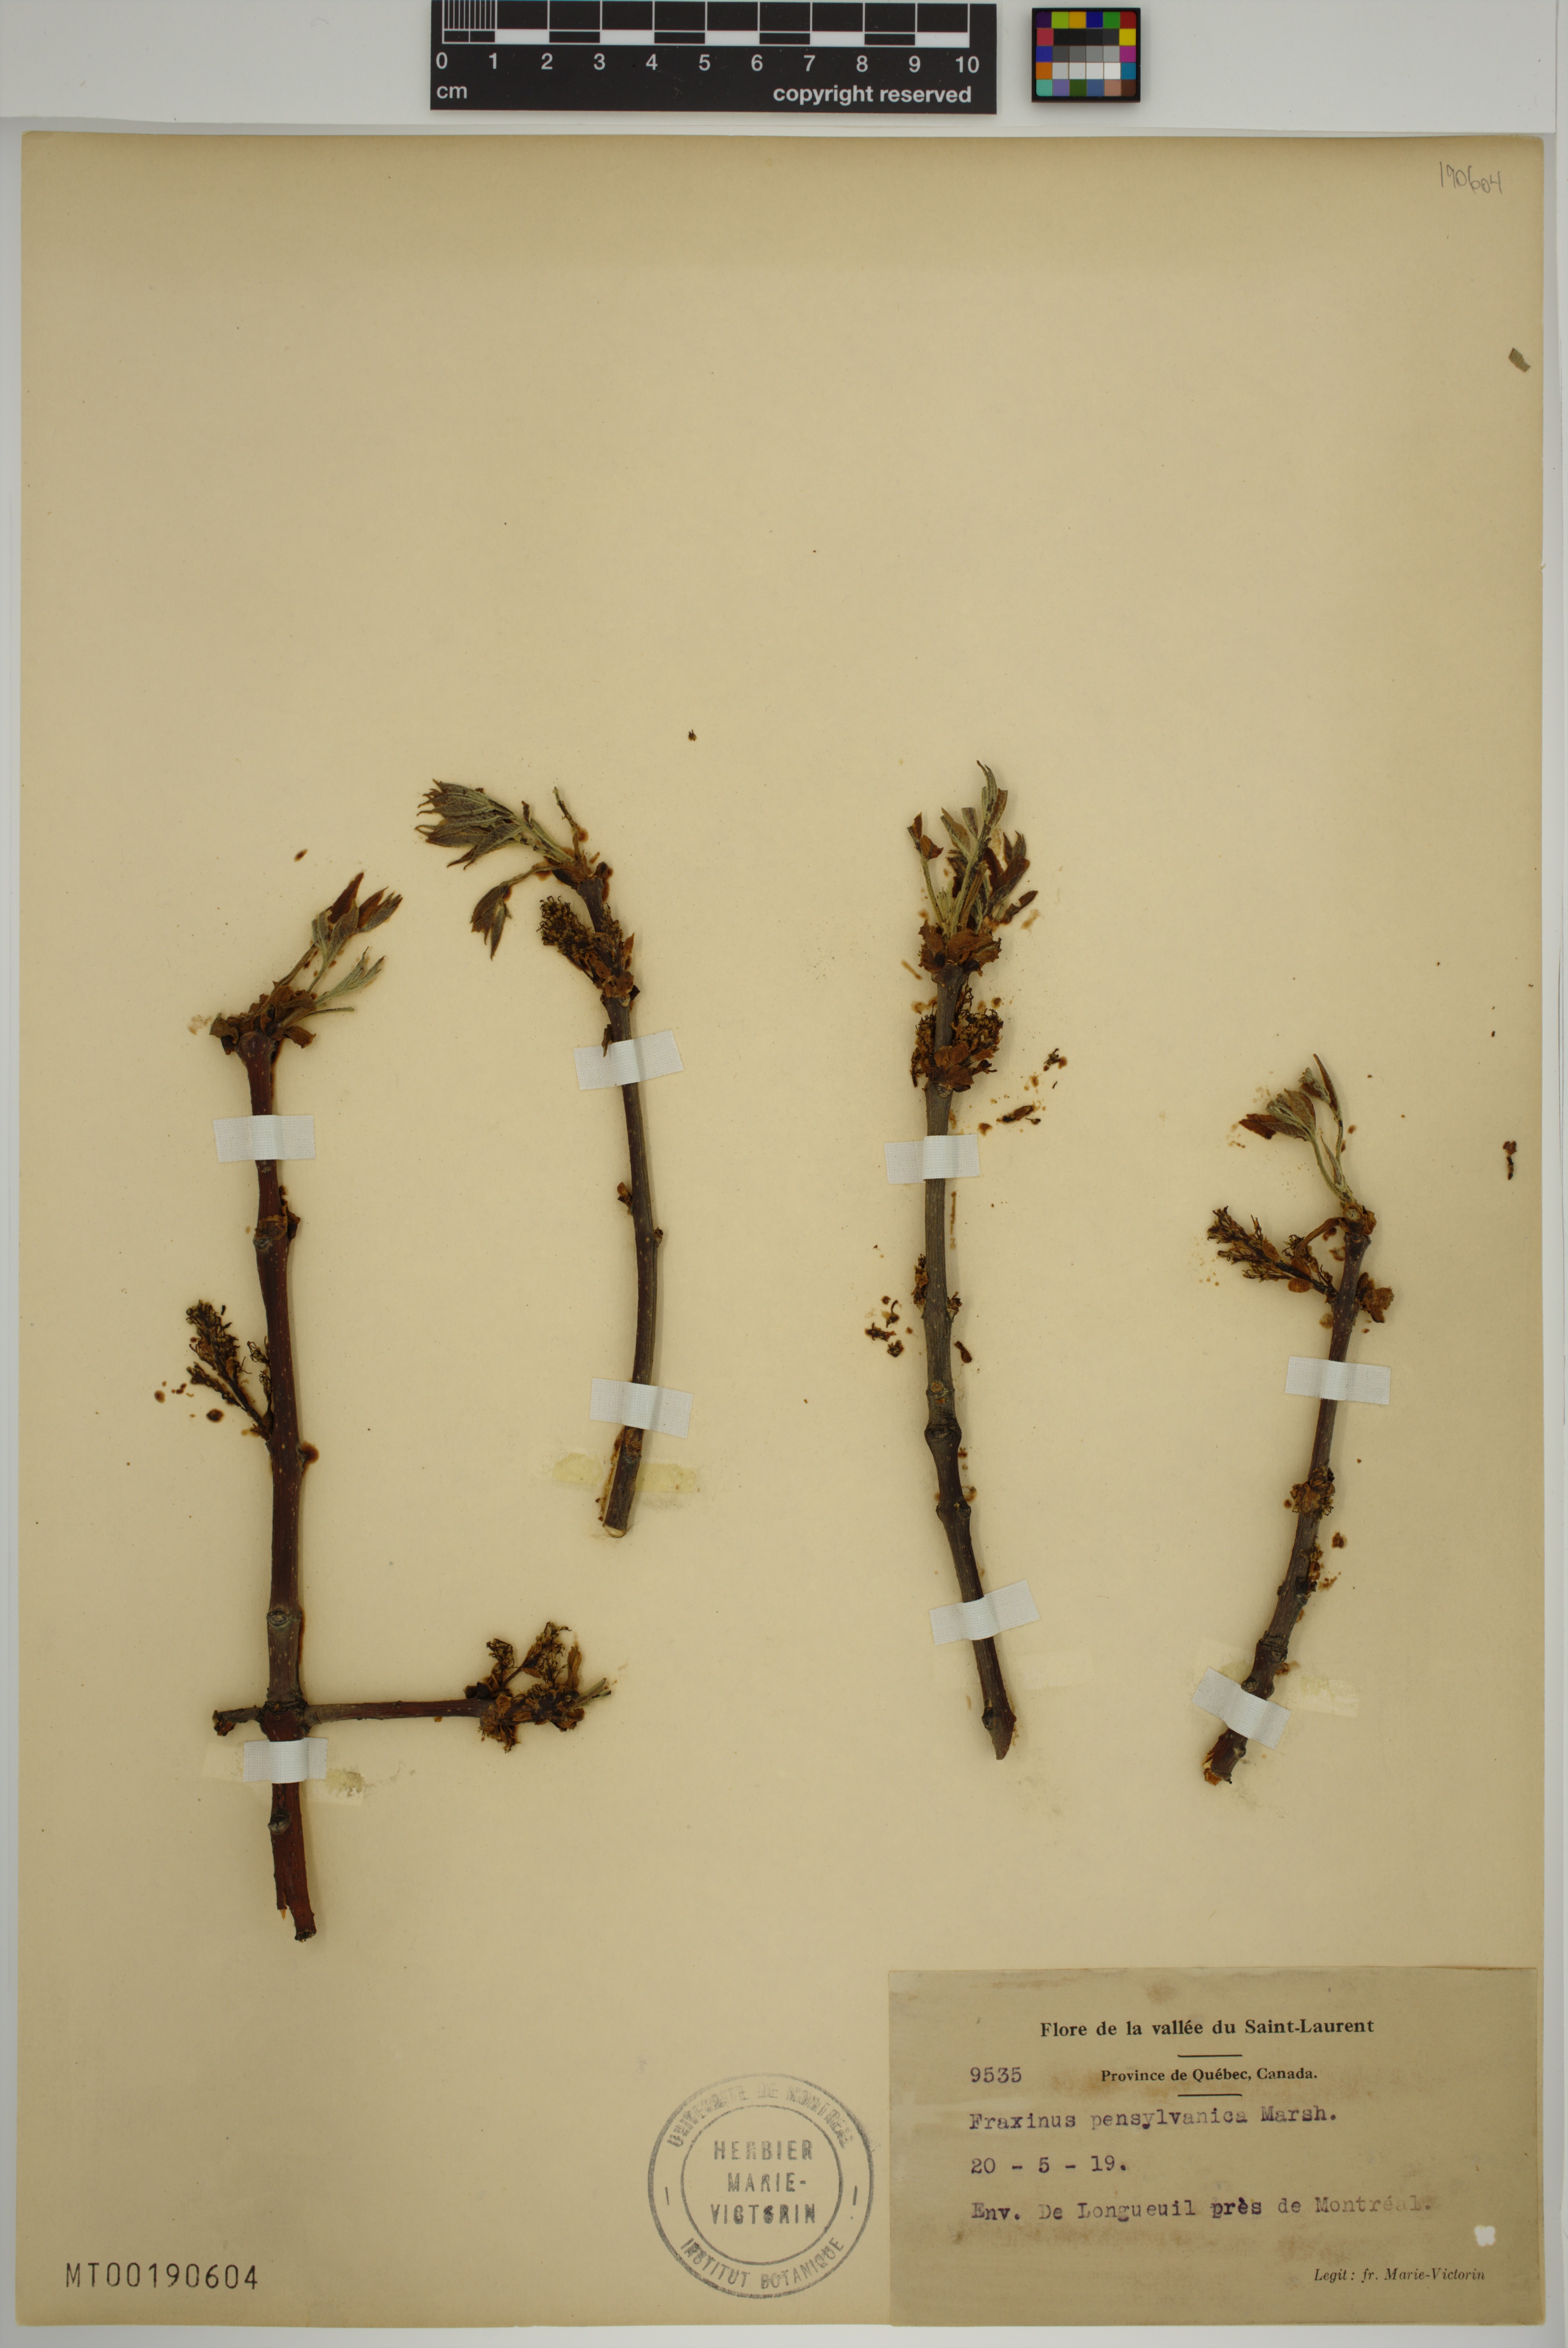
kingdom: Plantae
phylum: Tracheophyta
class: Magnoliopsida
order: Lamiales
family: Oleaceae
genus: Fraxinus
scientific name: Fraxinus pennsylvanica
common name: Green ash
